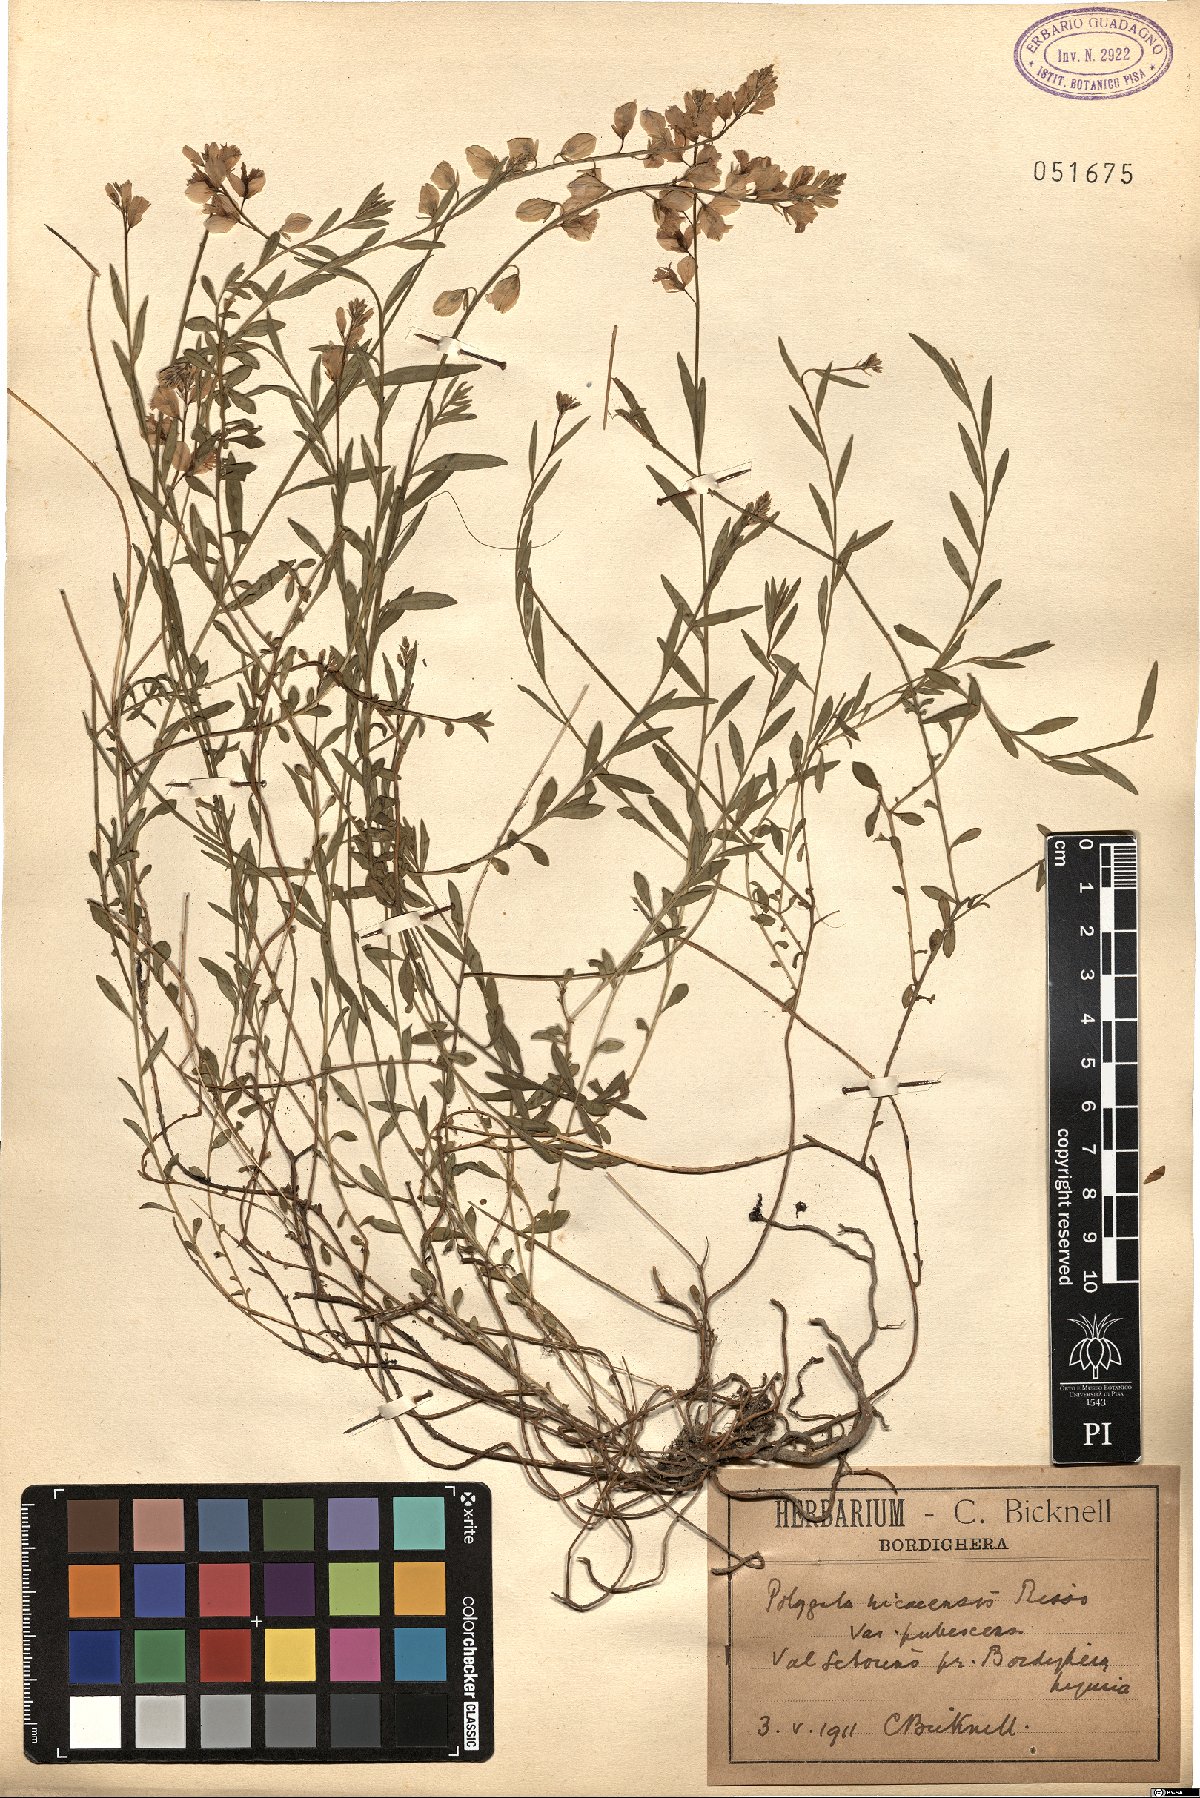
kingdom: Plantae
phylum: Tracheophyta
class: Magnoliopsida
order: Fabales
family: Polygalaceae
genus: Polygala
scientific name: Polygala nicaeensis
